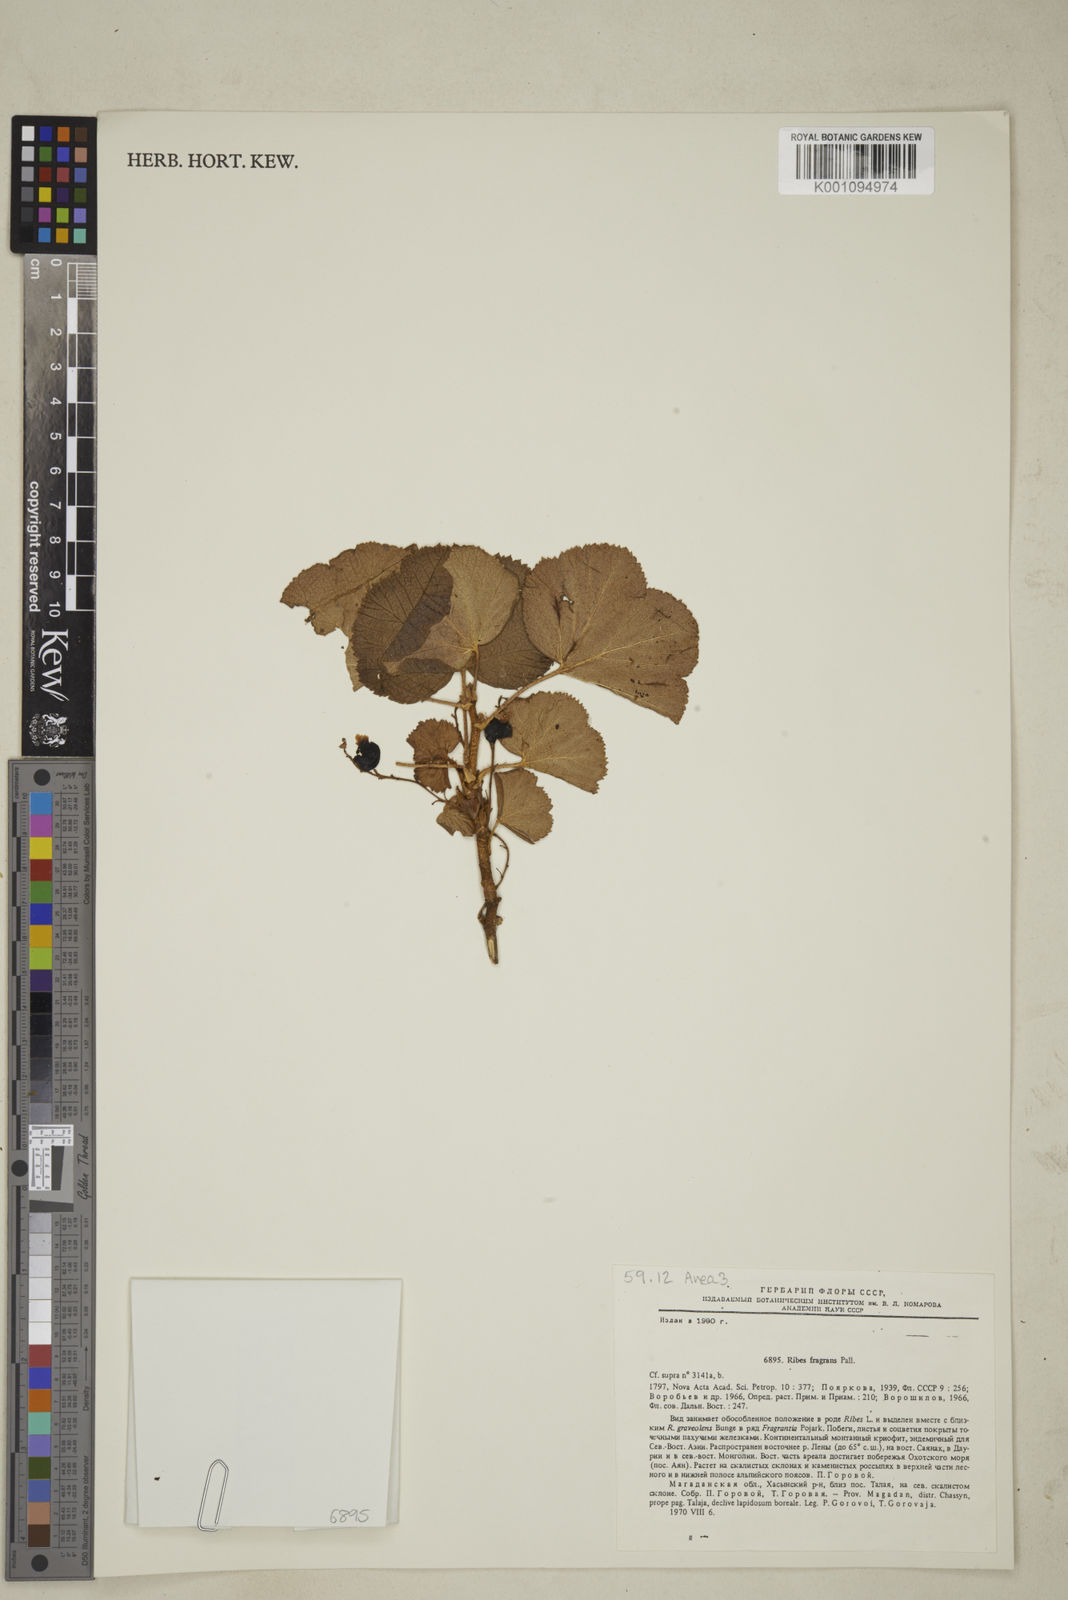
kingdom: Plantae
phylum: Tracheophyta
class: Magnoliopsida
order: Saxifragales
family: Grossulariaceae
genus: Ribes
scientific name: Ribes
